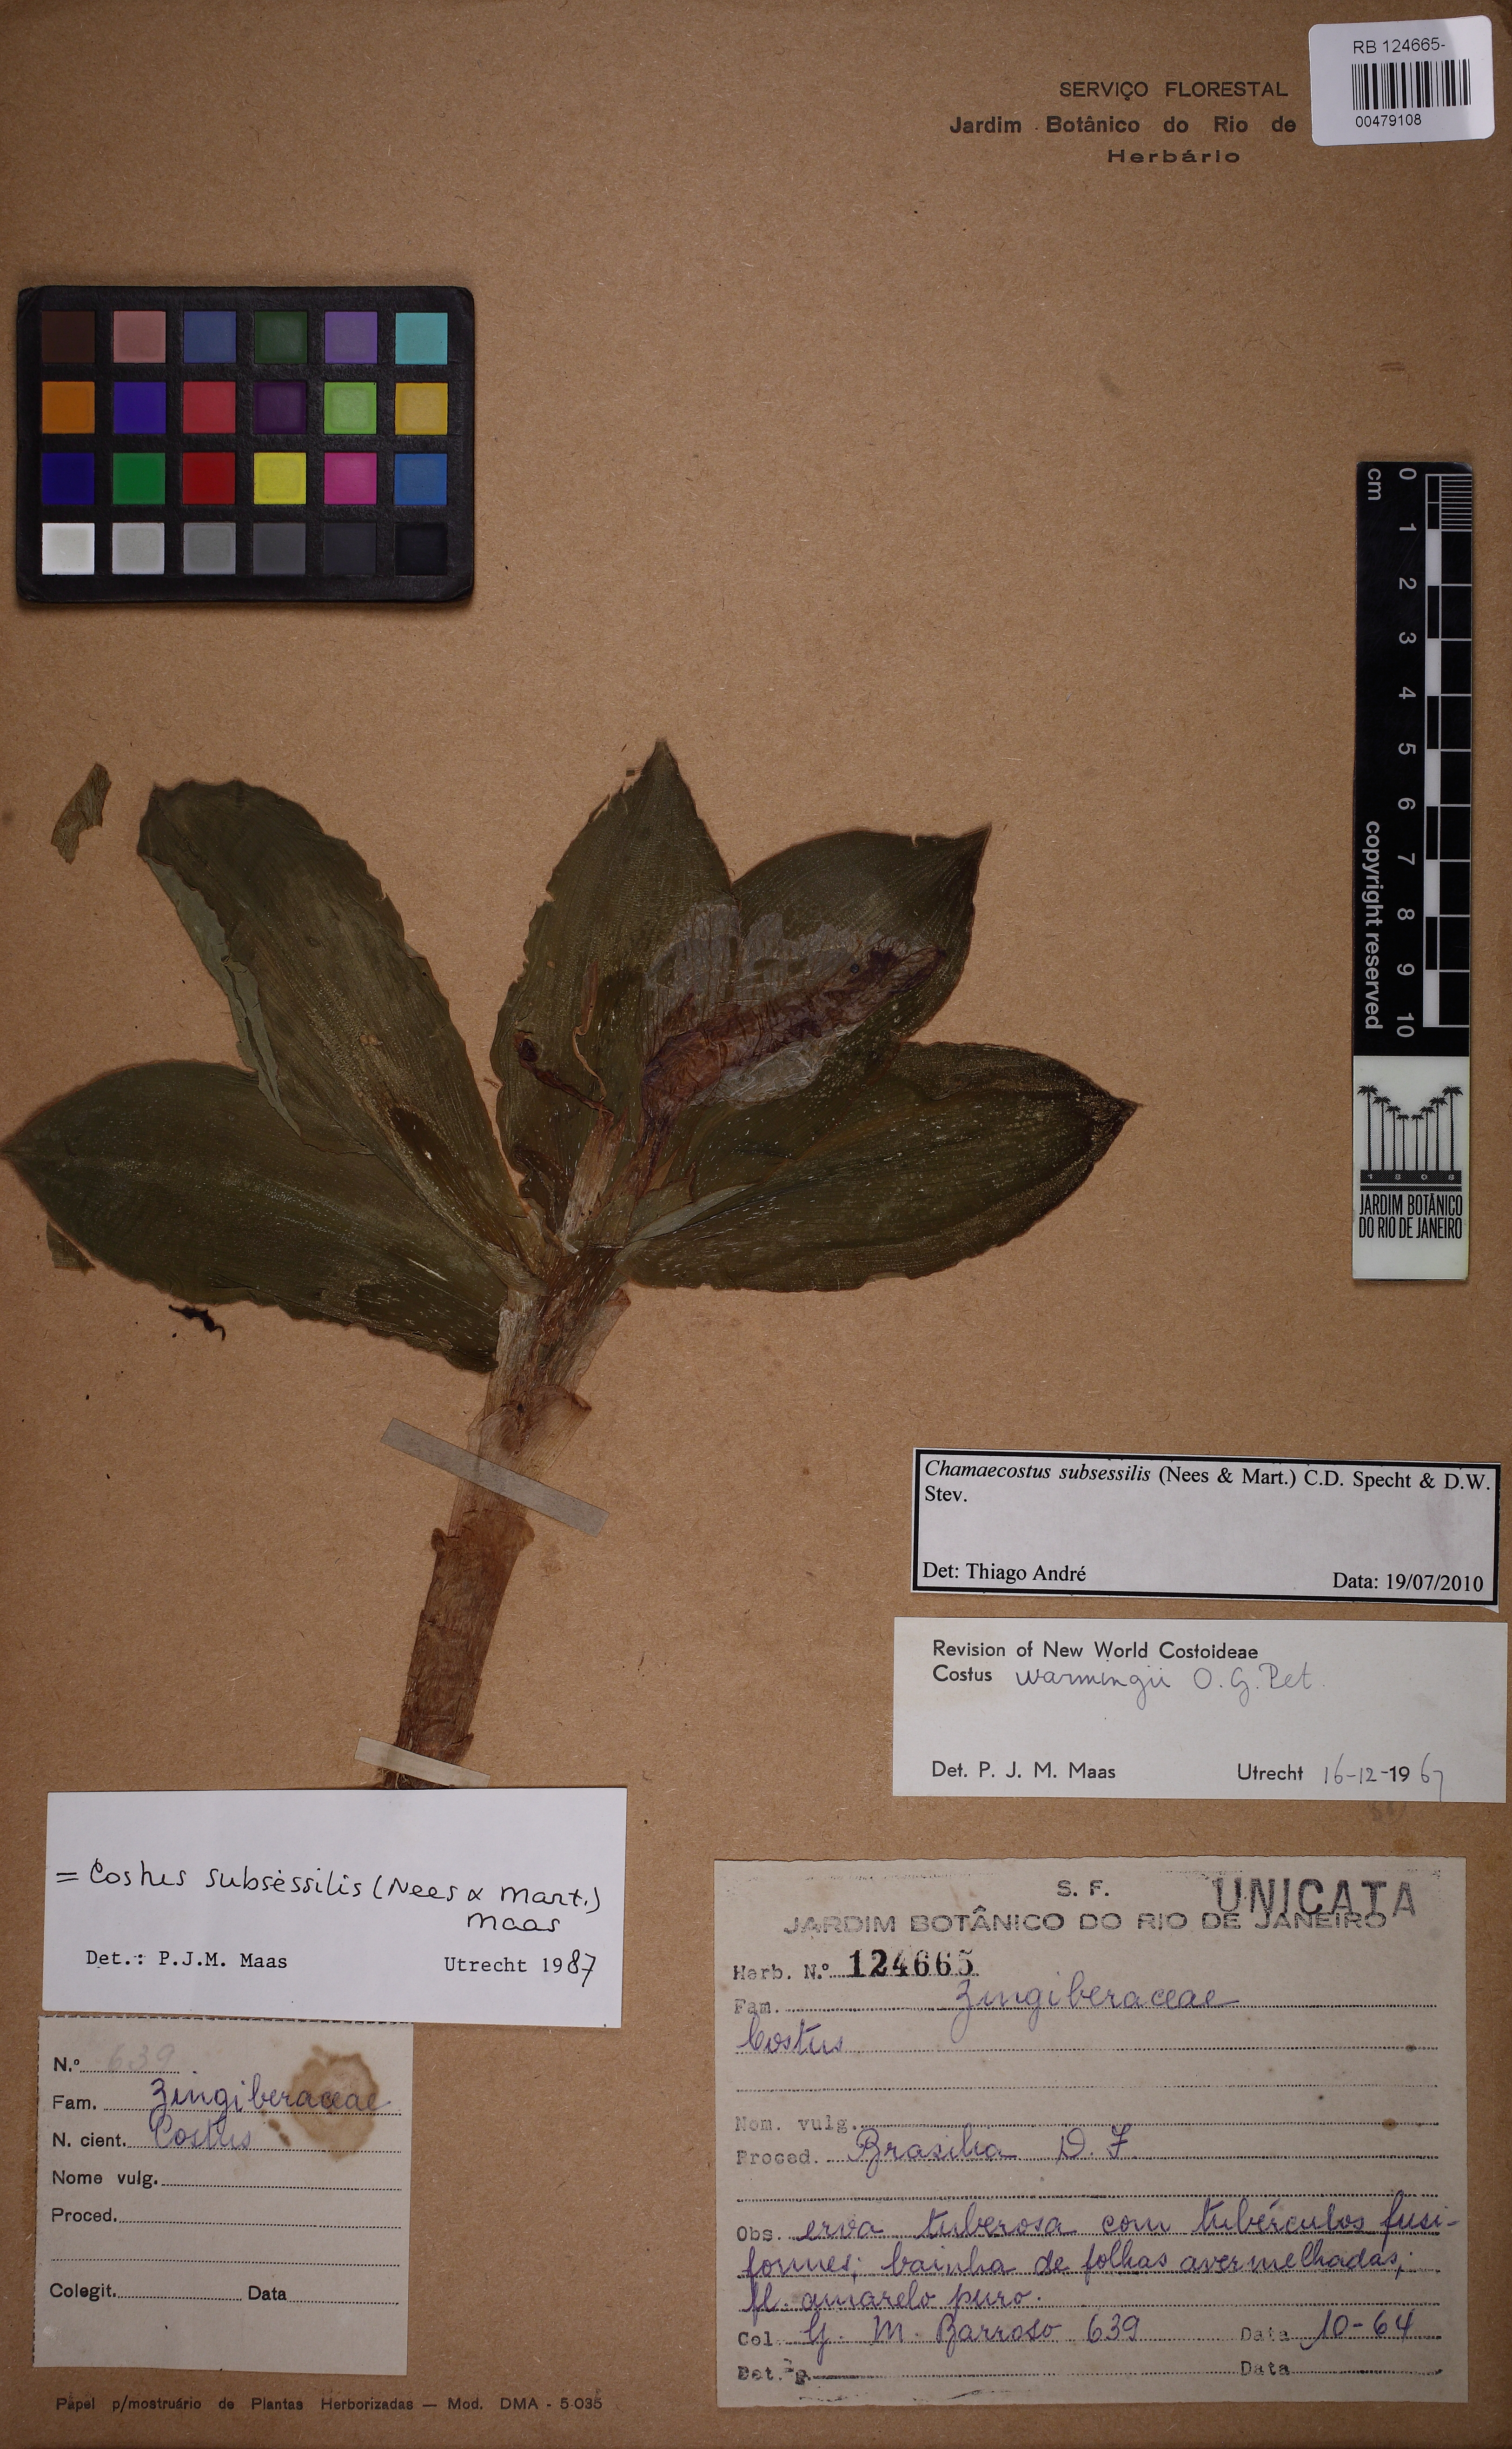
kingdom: Plantae
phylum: Tracheophyta
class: Liliopsida
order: Zingiberales
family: Costaceae
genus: Chamaecostus
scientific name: Chamaecostus subsessilis
